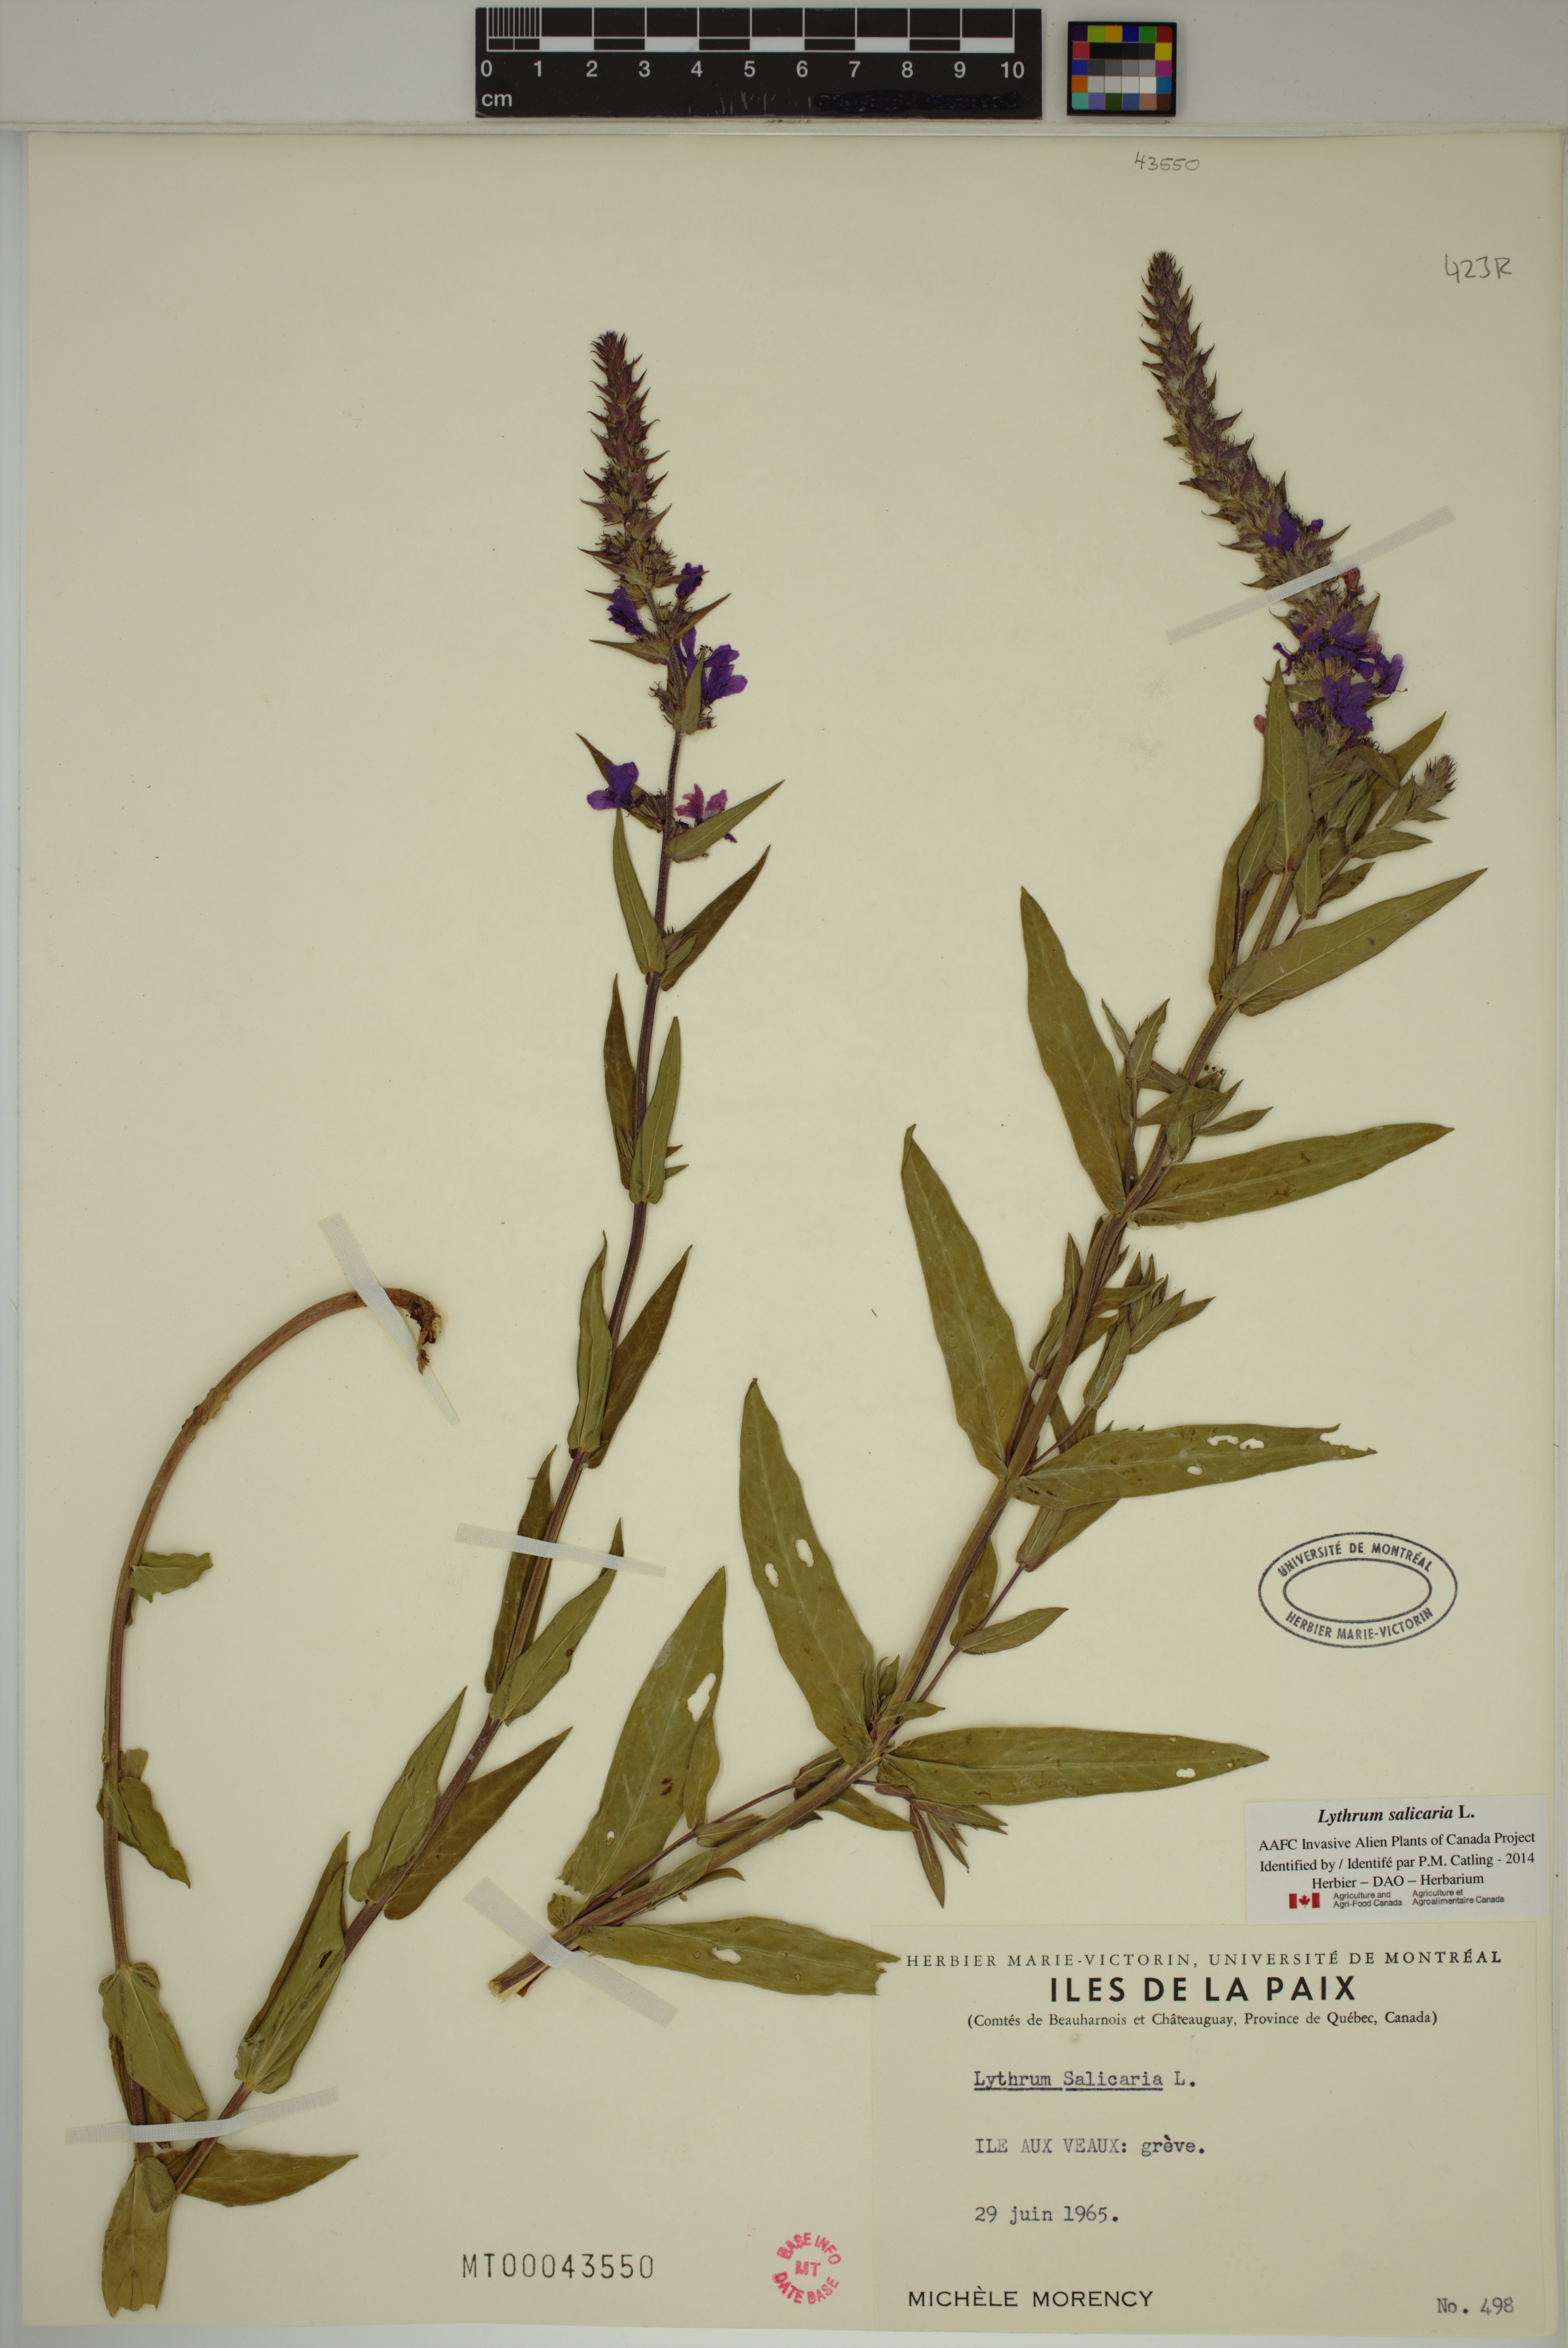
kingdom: Plantae
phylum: Tracheophyta
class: Magnoliopsida
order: Myrtales
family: Lythraceae
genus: Lythrum
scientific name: Lythrum salicaria
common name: Purple loosestrife
